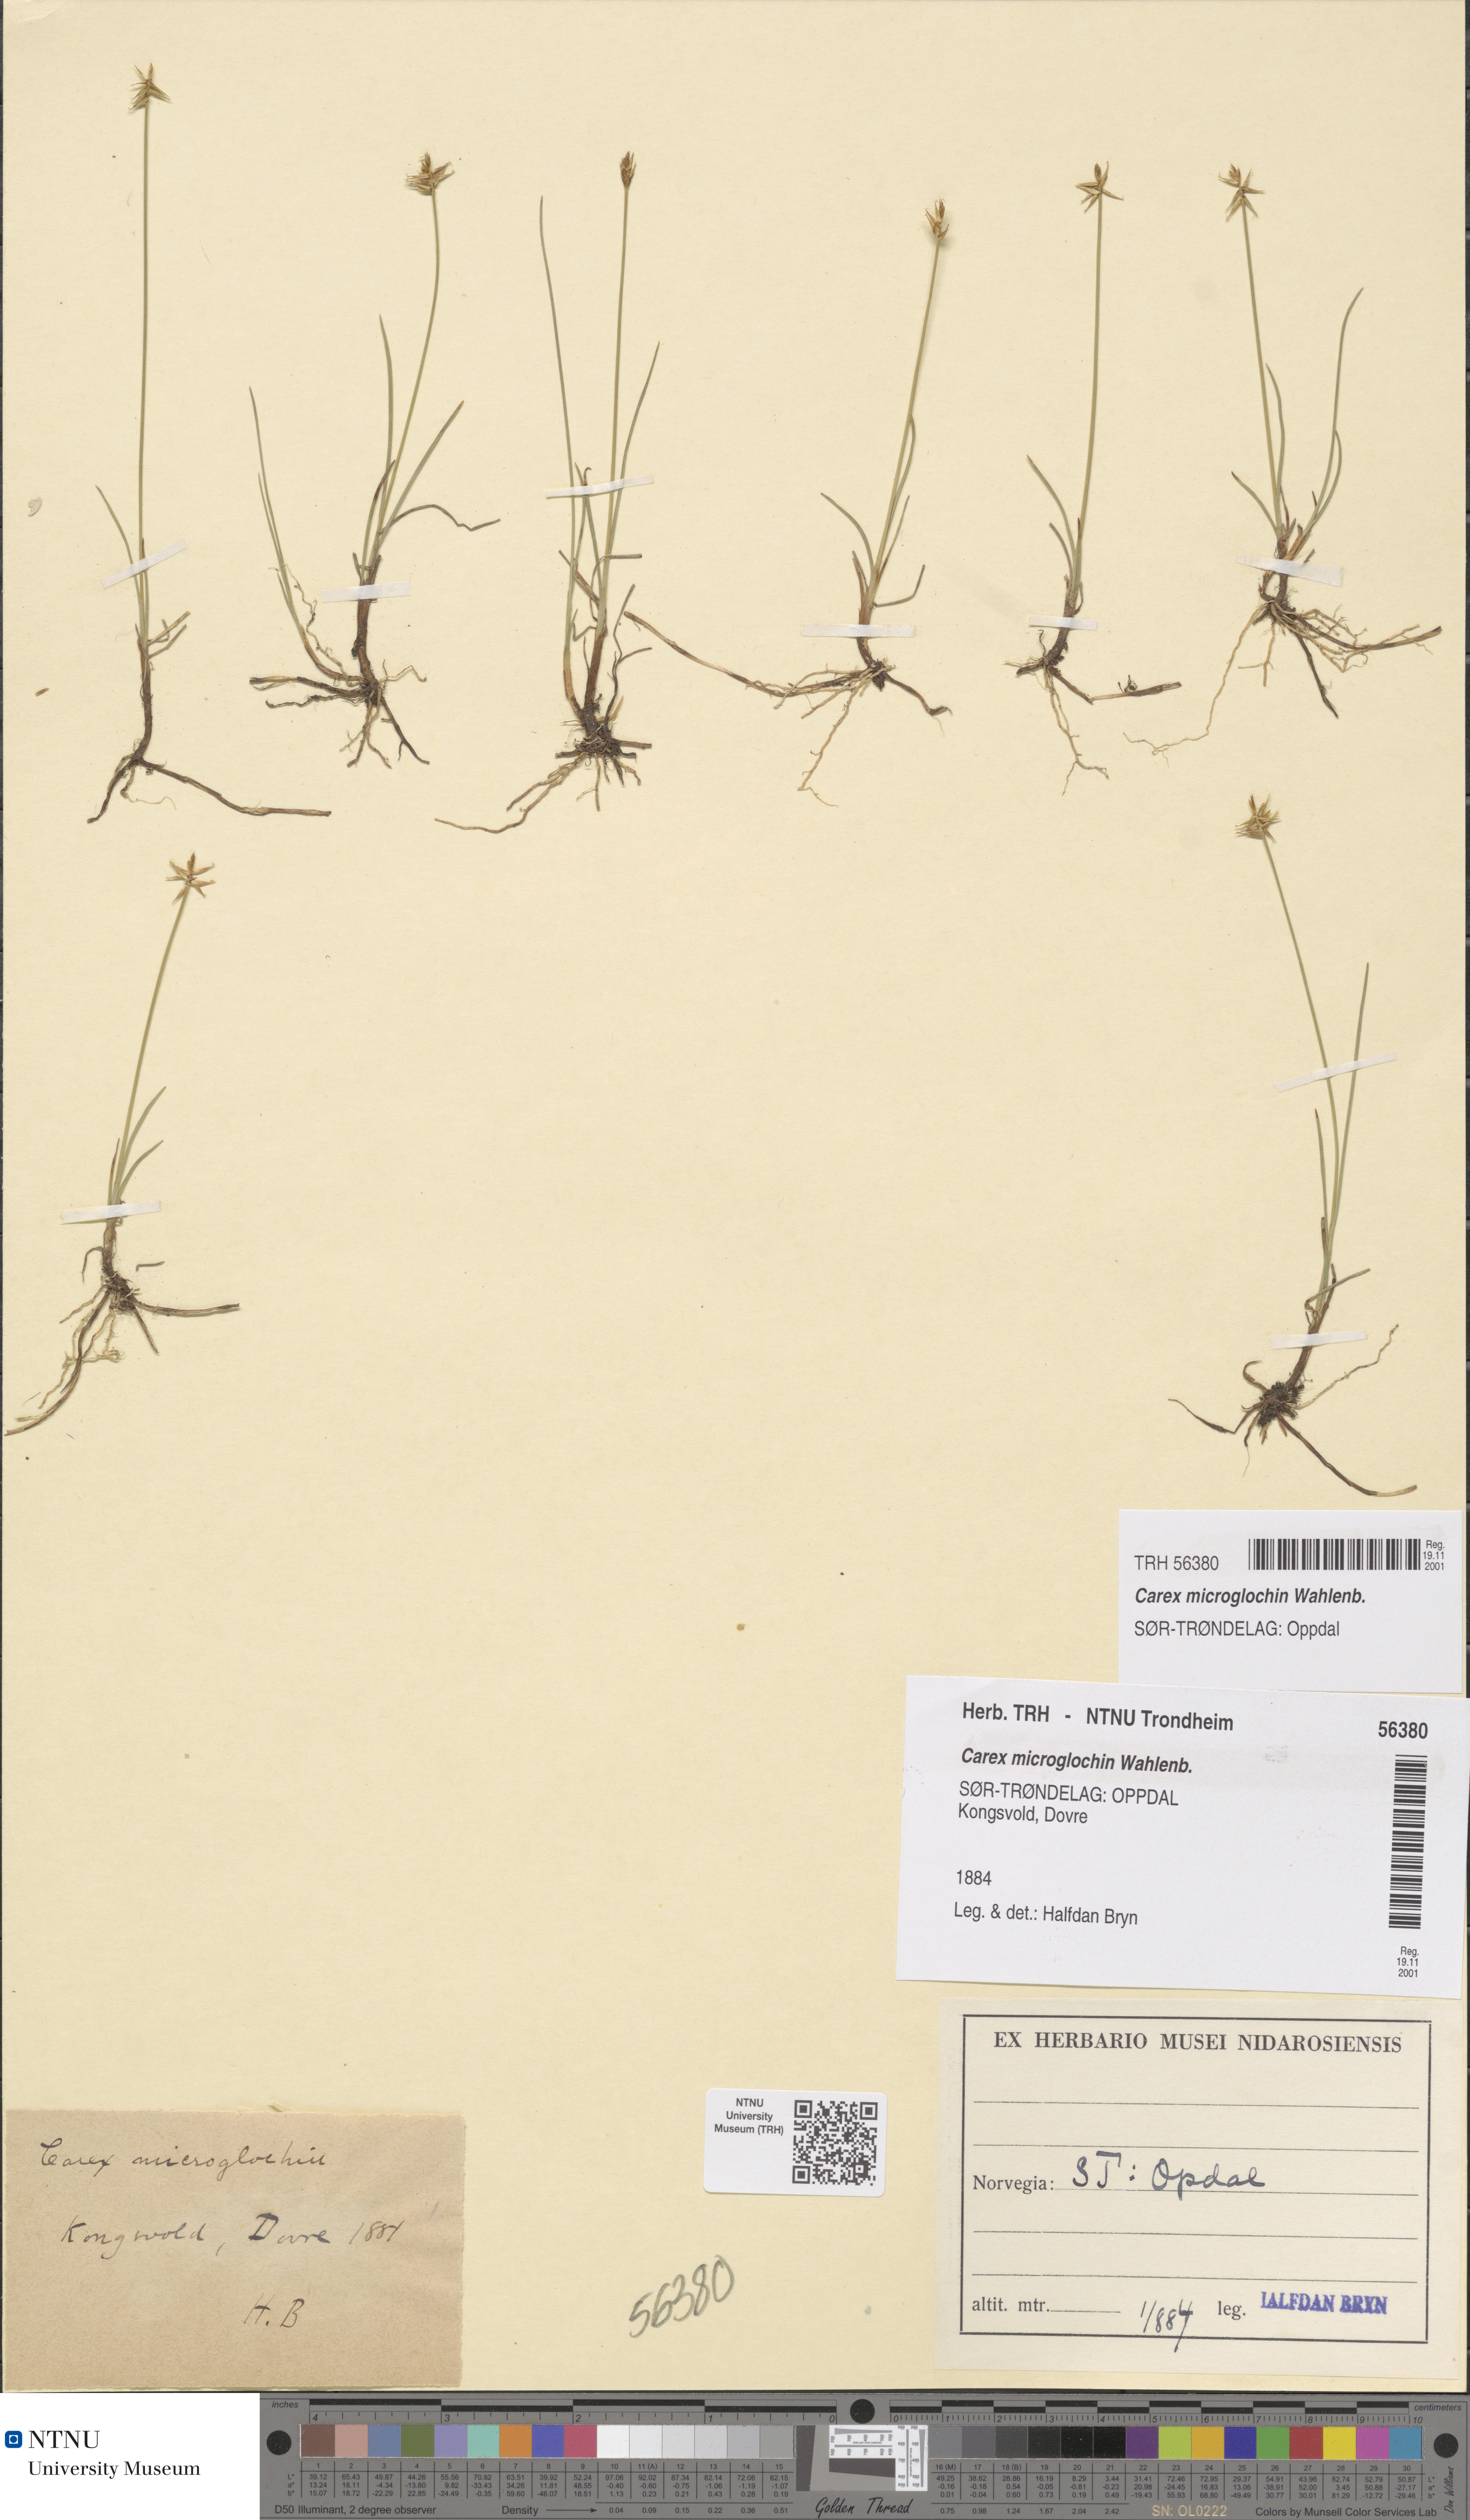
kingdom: Plantae
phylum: Tracheophyta
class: Liliopsida
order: Poales
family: Cyperaceae
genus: Carex
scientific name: Carex microglochin
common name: Bristle sedge
